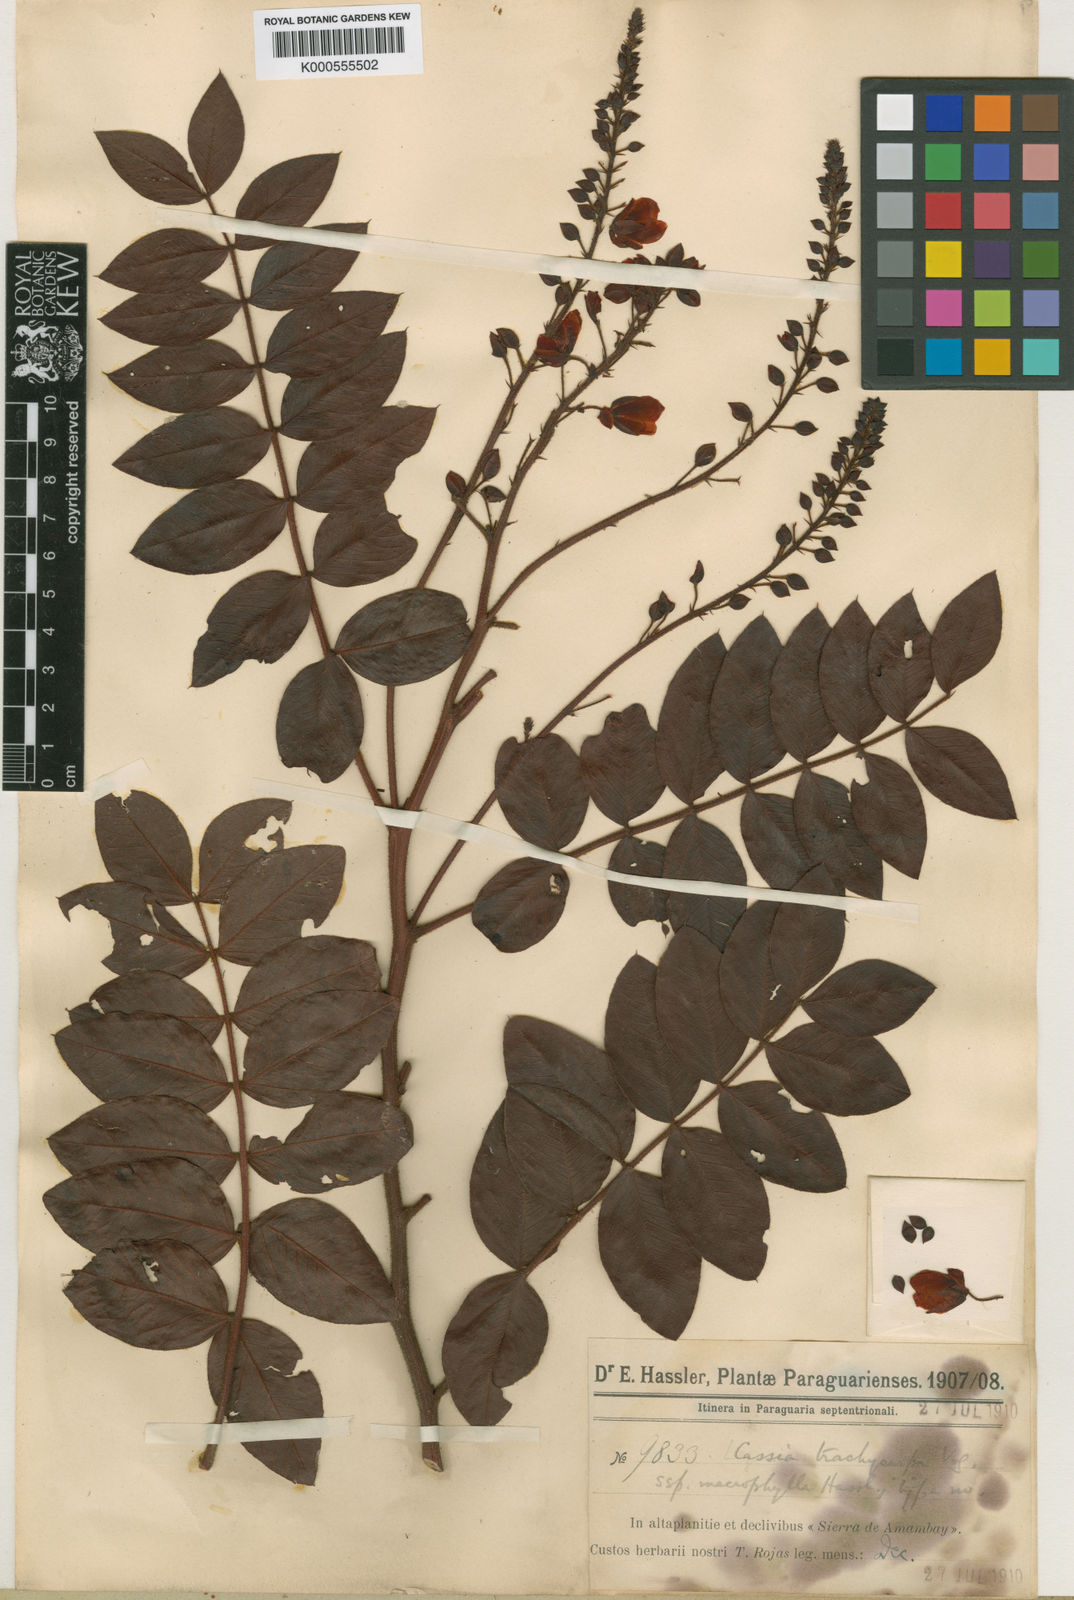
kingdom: Plantae
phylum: Tracheophyta
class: Magnoliopsida
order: Fabales
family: Fabaceae
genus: Chamaecrista
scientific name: Chamaecrista trachycarpa
